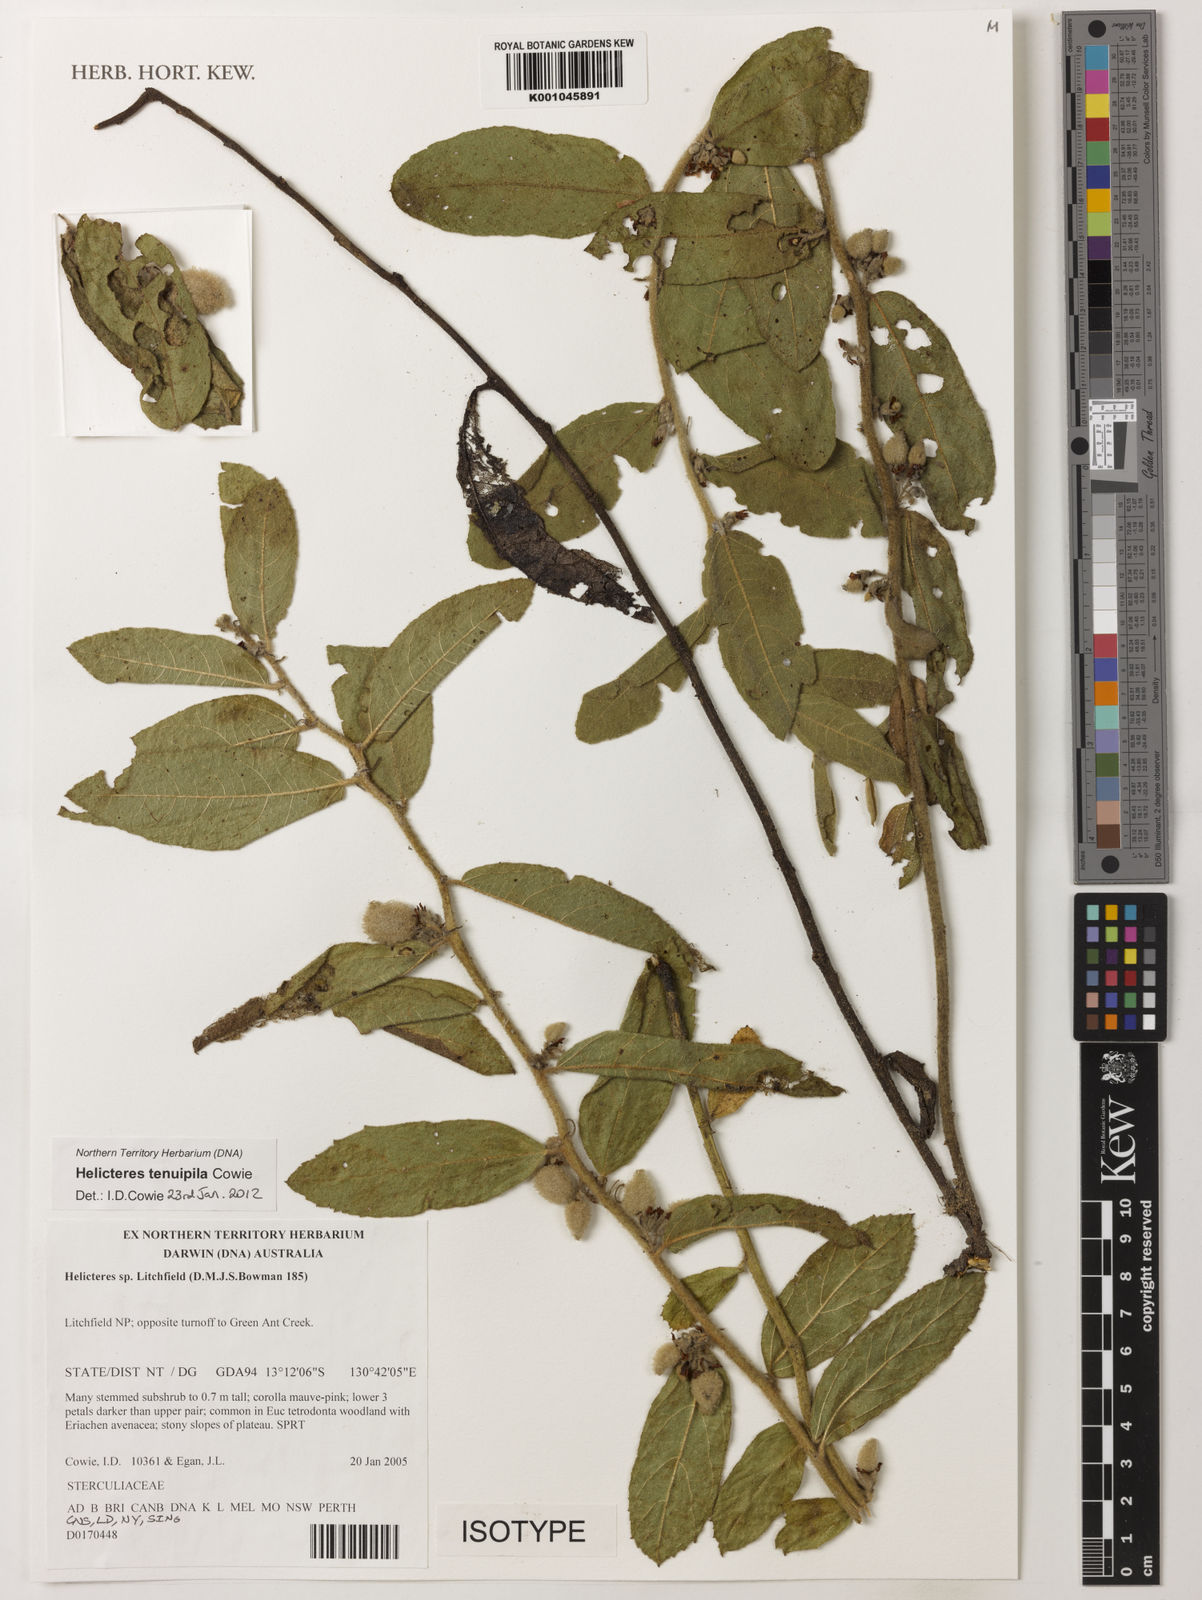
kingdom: Plantae
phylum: Tracheophyta
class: Magnoliopsida
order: Malvales
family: Malvaceae
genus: Helicteres
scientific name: Helicteres tenuipila
